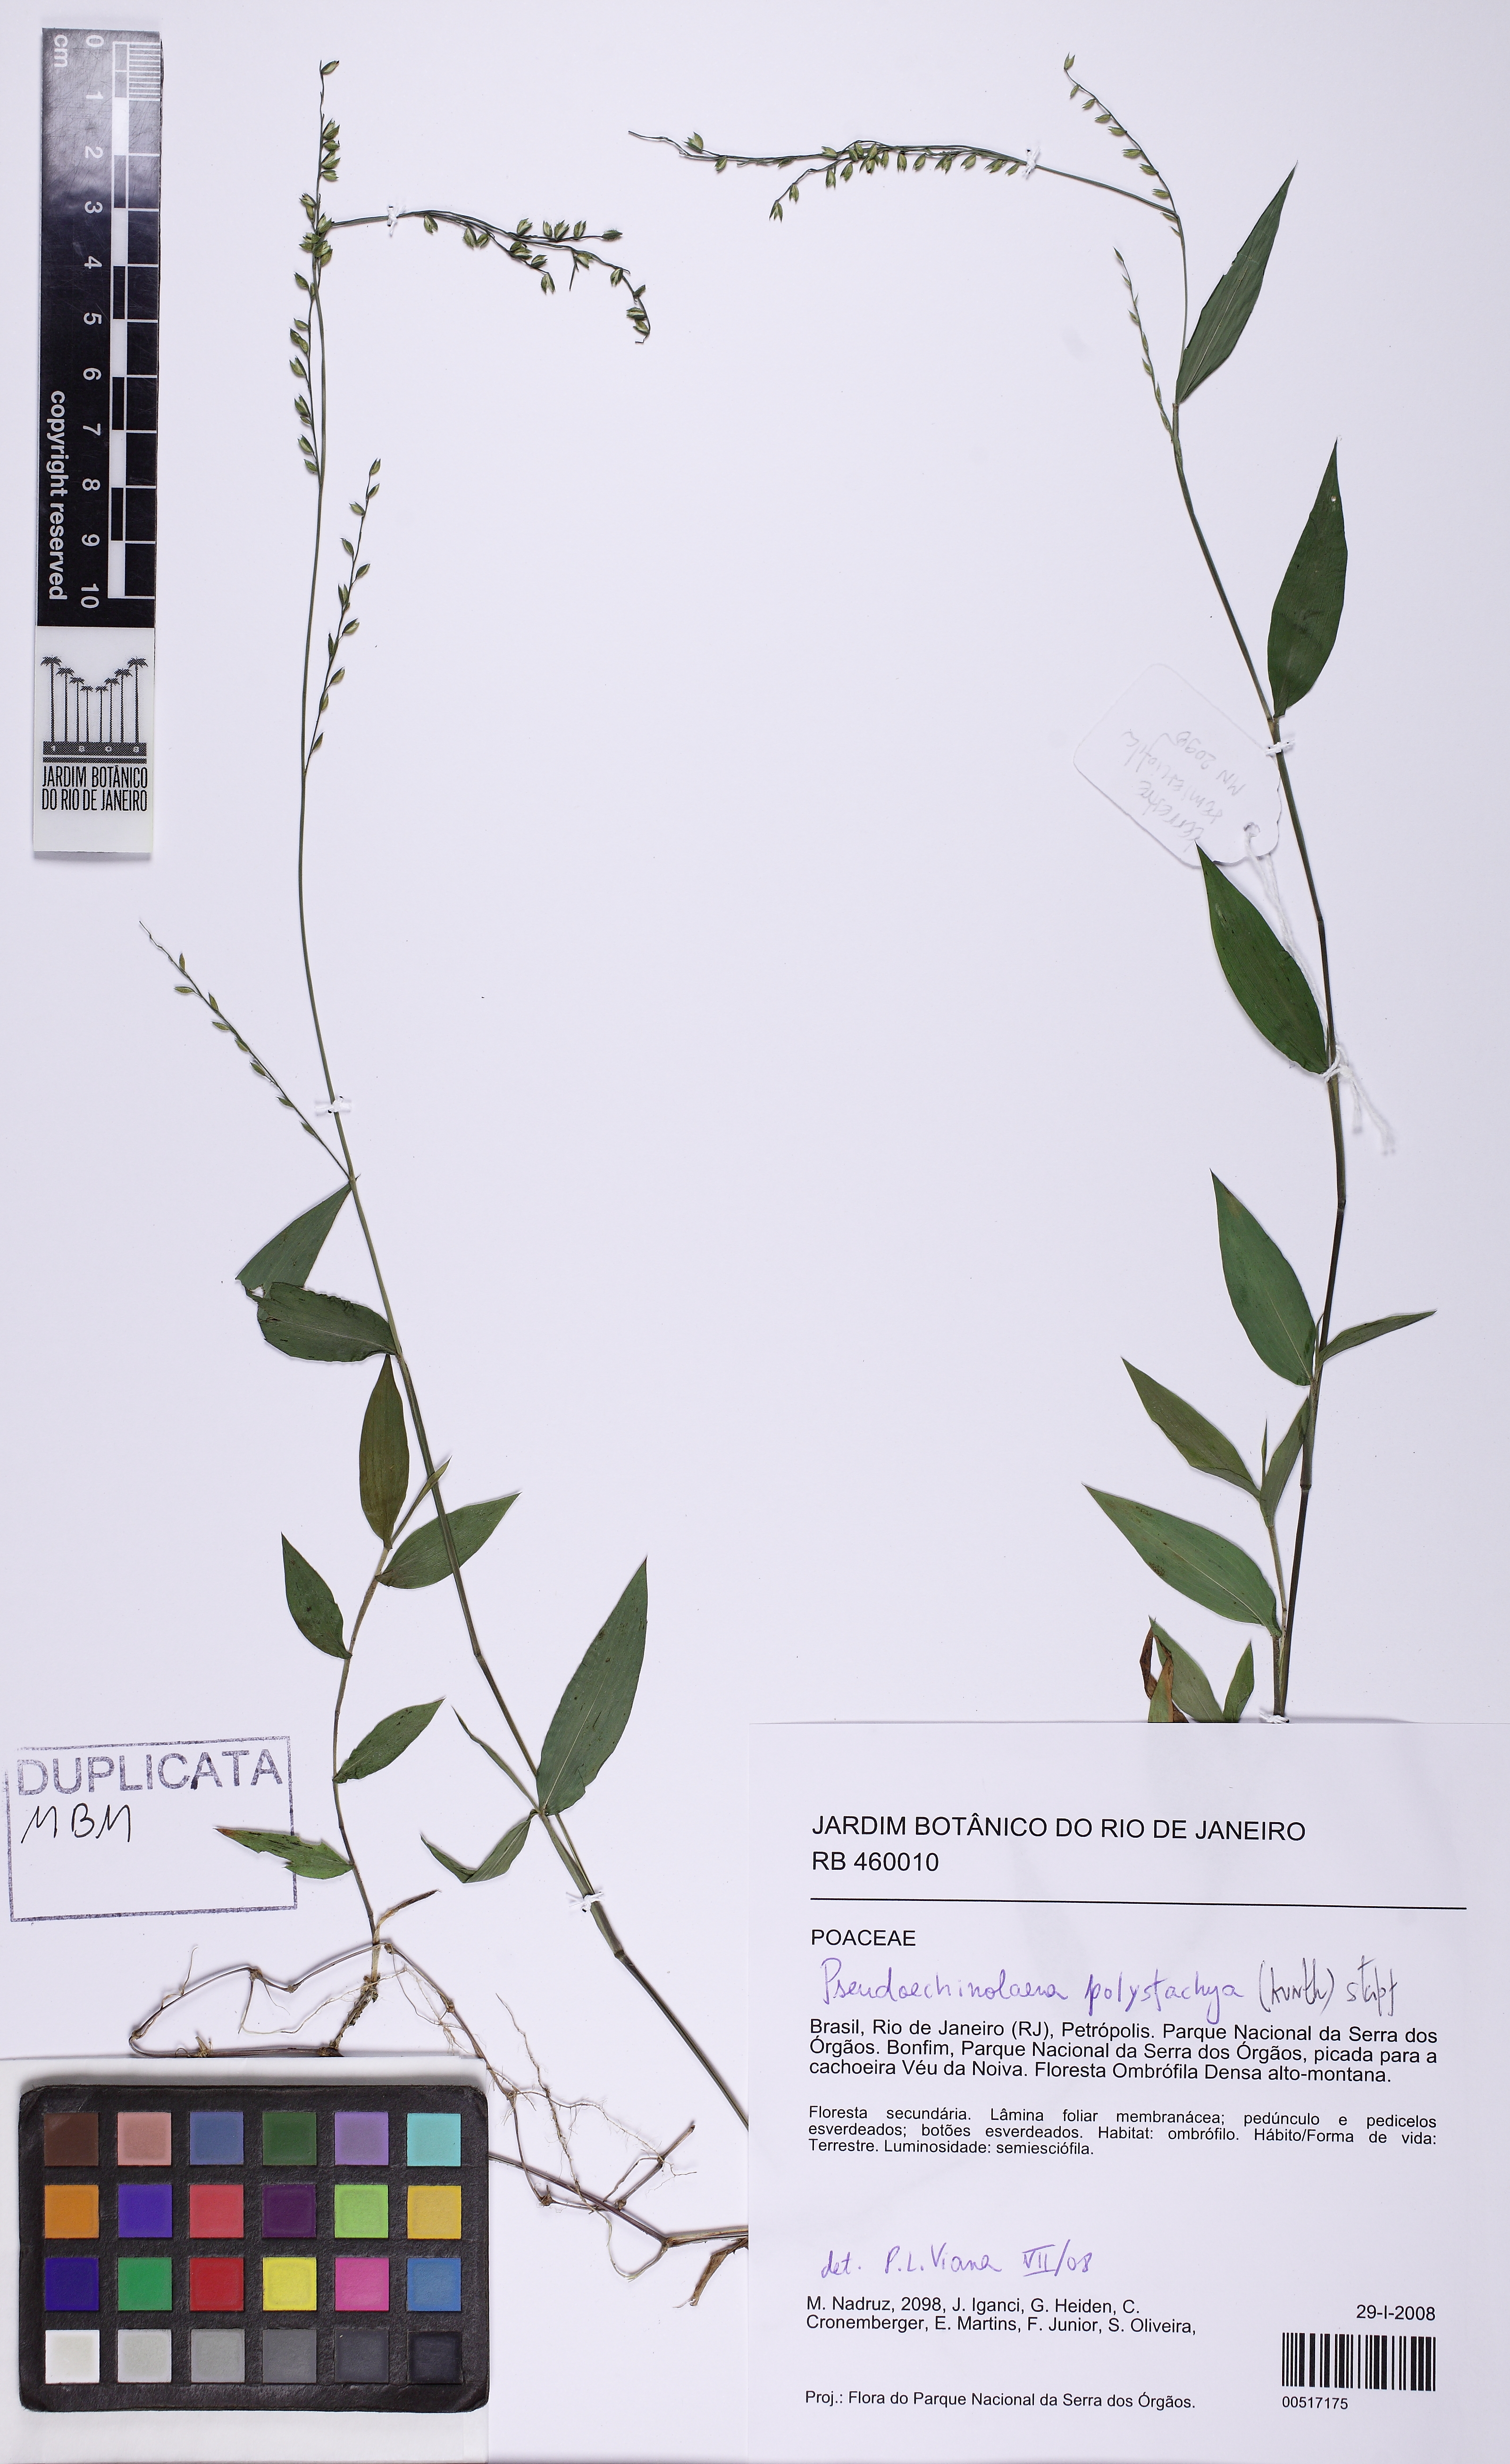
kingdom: Plantae
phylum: Tracheophyta
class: Liliopsida
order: Poales
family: Poaceae
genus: Pseudechinolaena
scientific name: Pseudechinolaena polystachya
